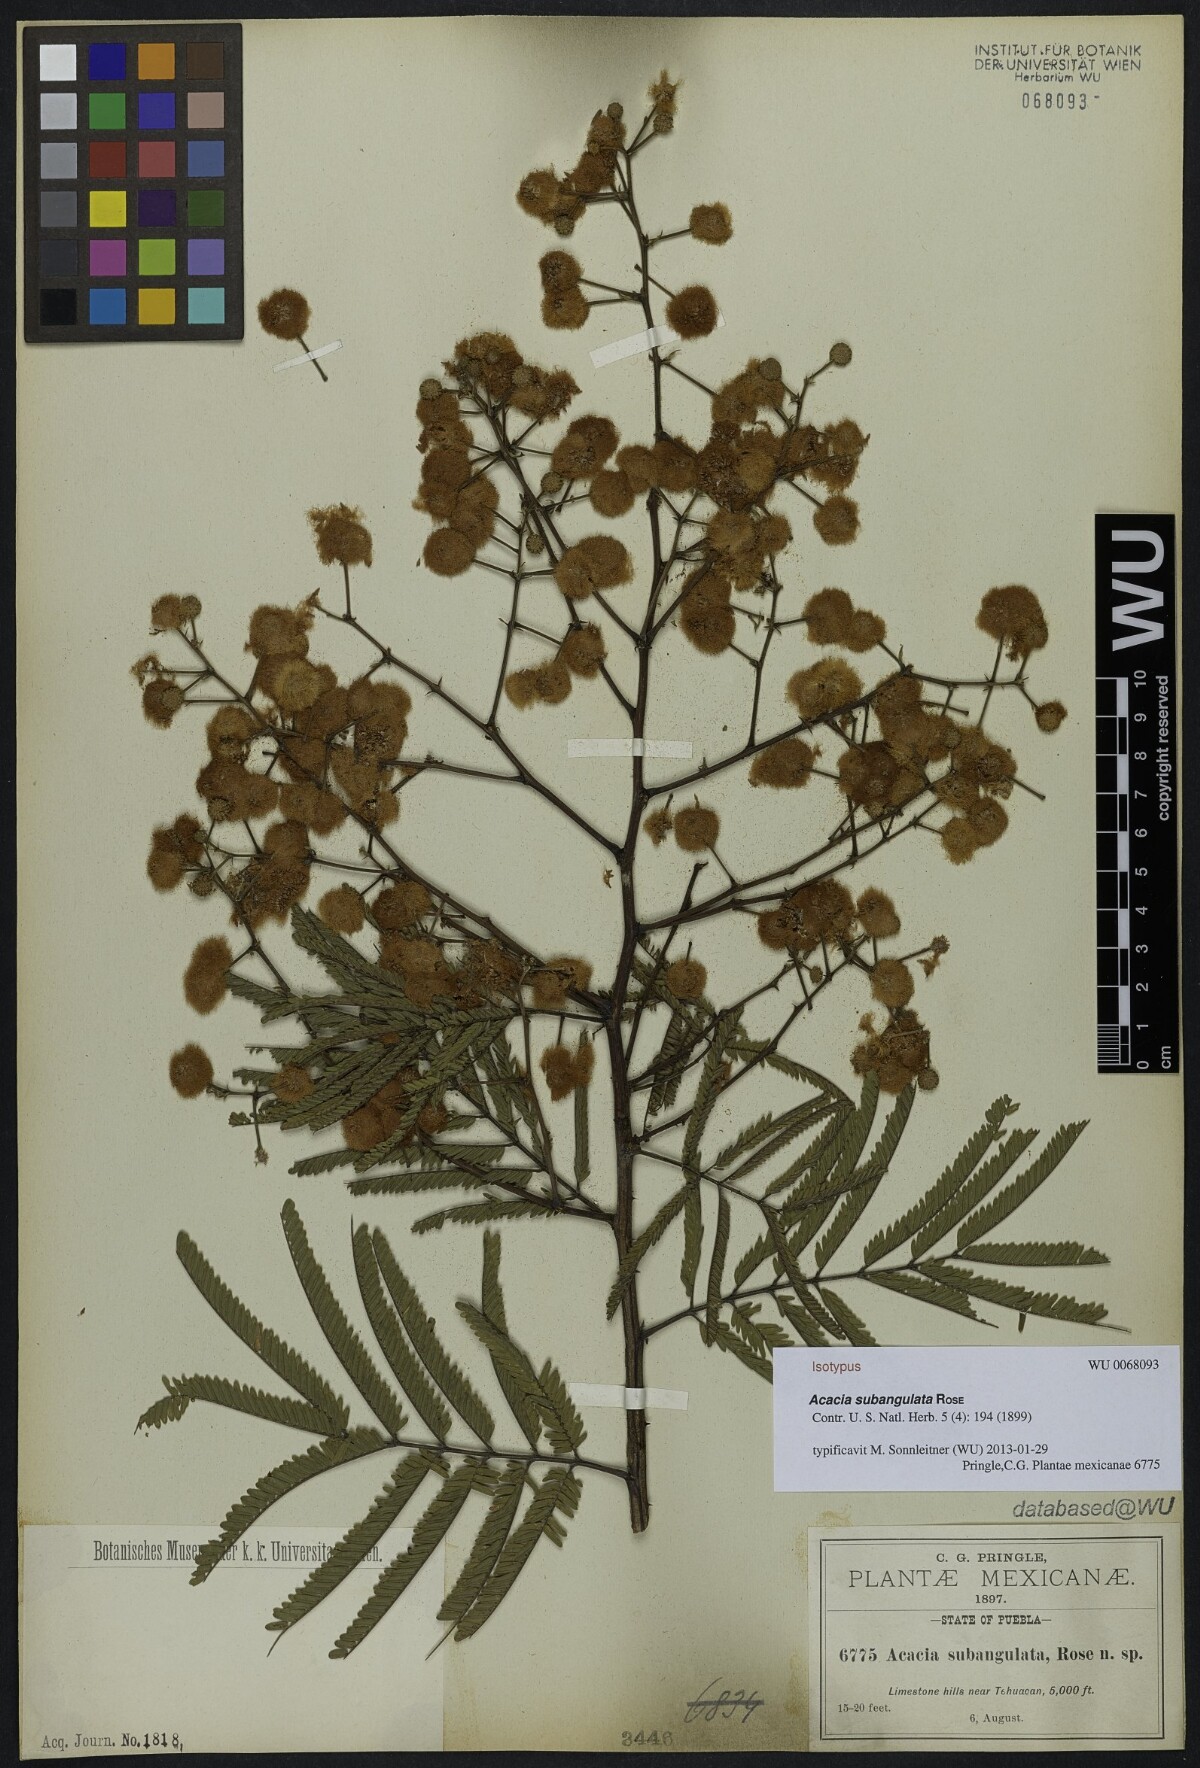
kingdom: Plantae
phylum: Tracheophyta
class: Magnoliopsida
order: Fabales
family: Fabaceae
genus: Senegalia
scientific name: Senegalia subangulata
